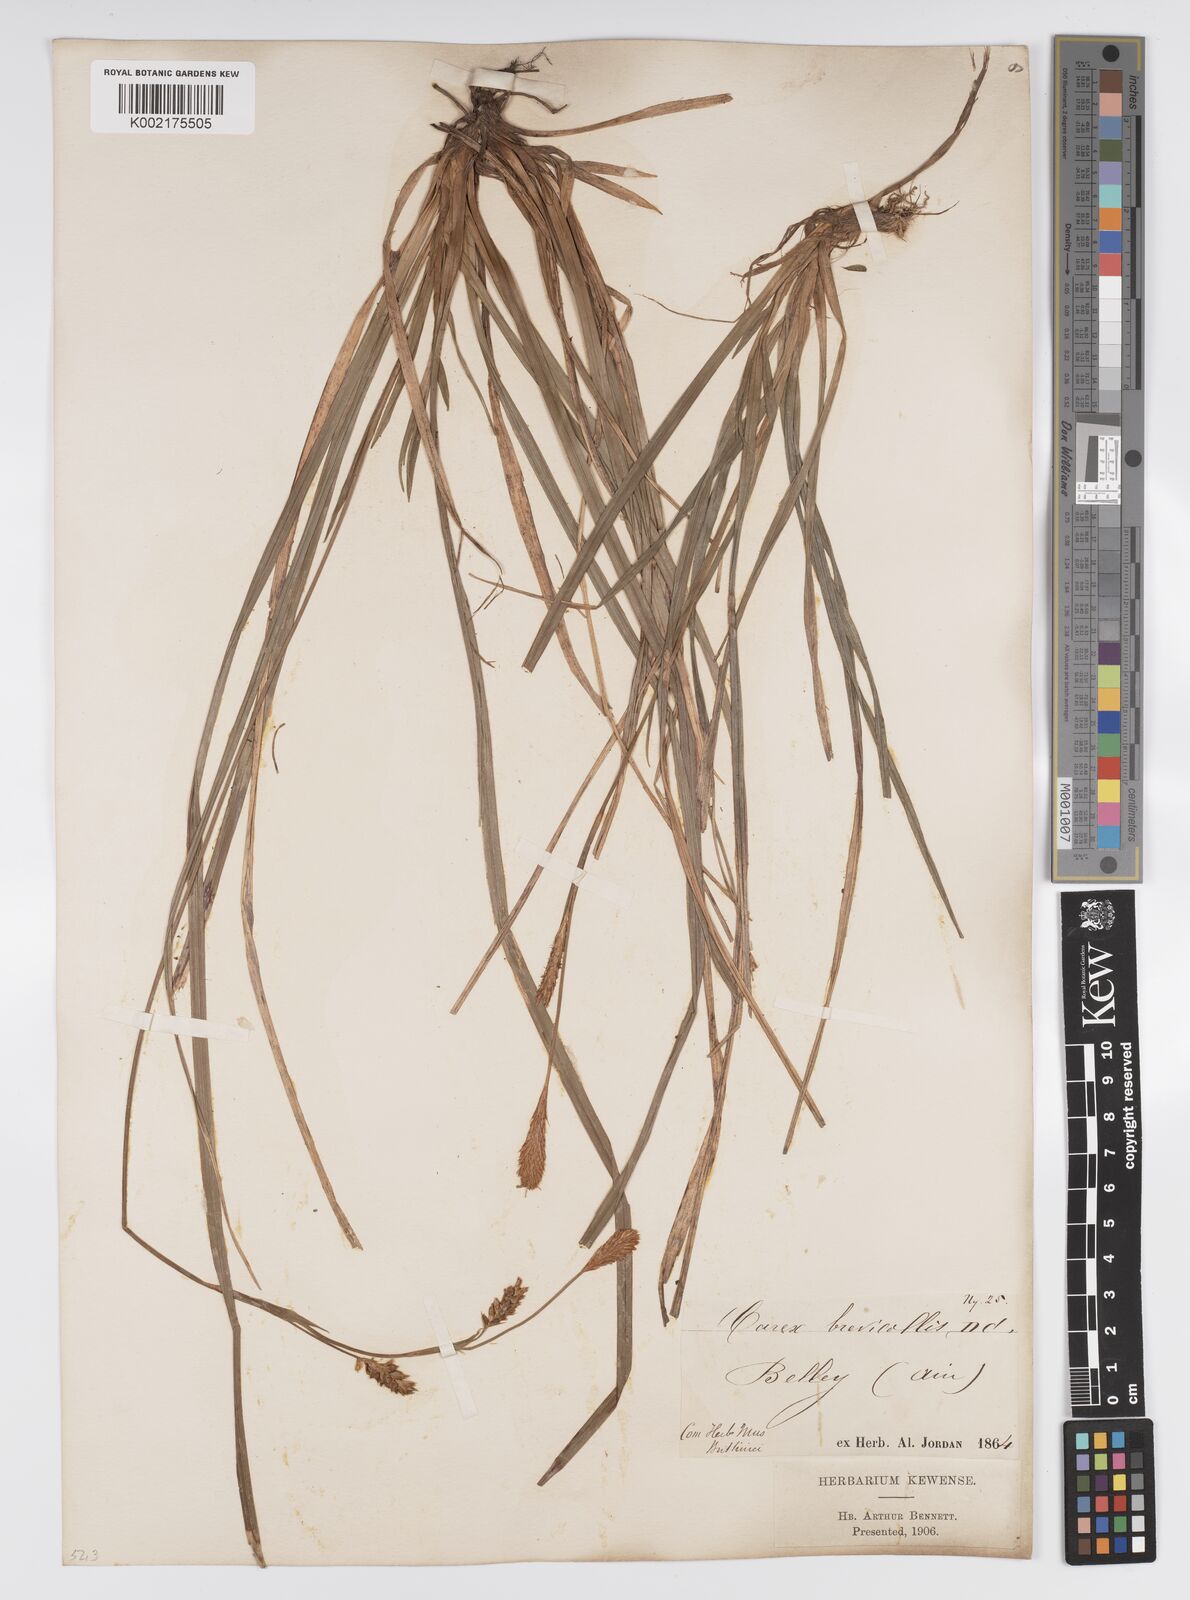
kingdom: Plantae
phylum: Tracheophyta
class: Liliopsida
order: Poales
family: Cyperaceae
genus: Carex
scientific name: Carex brevicollis
